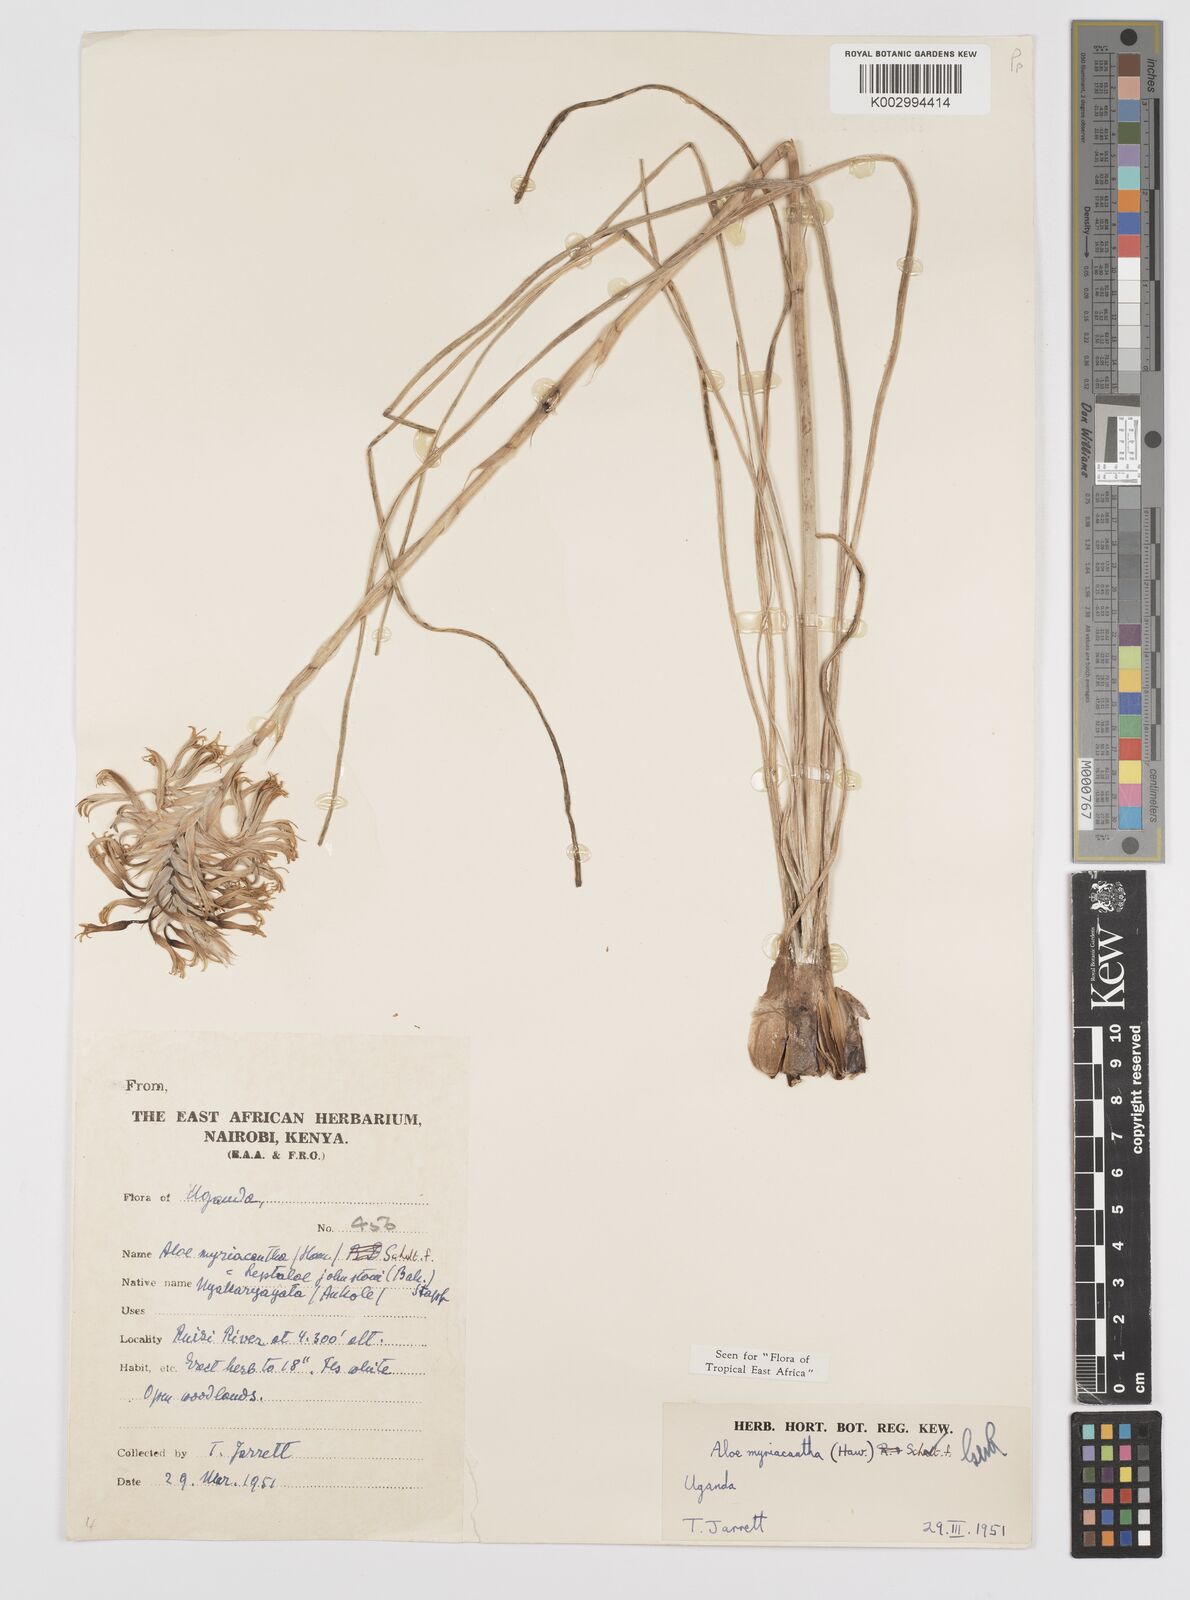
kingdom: Plantae
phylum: Tracheophyta
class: Liliopsida
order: Asparagales
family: Asphodelaceae
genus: Aloe
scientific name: Aloe myriacantha
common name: Grass aloe
